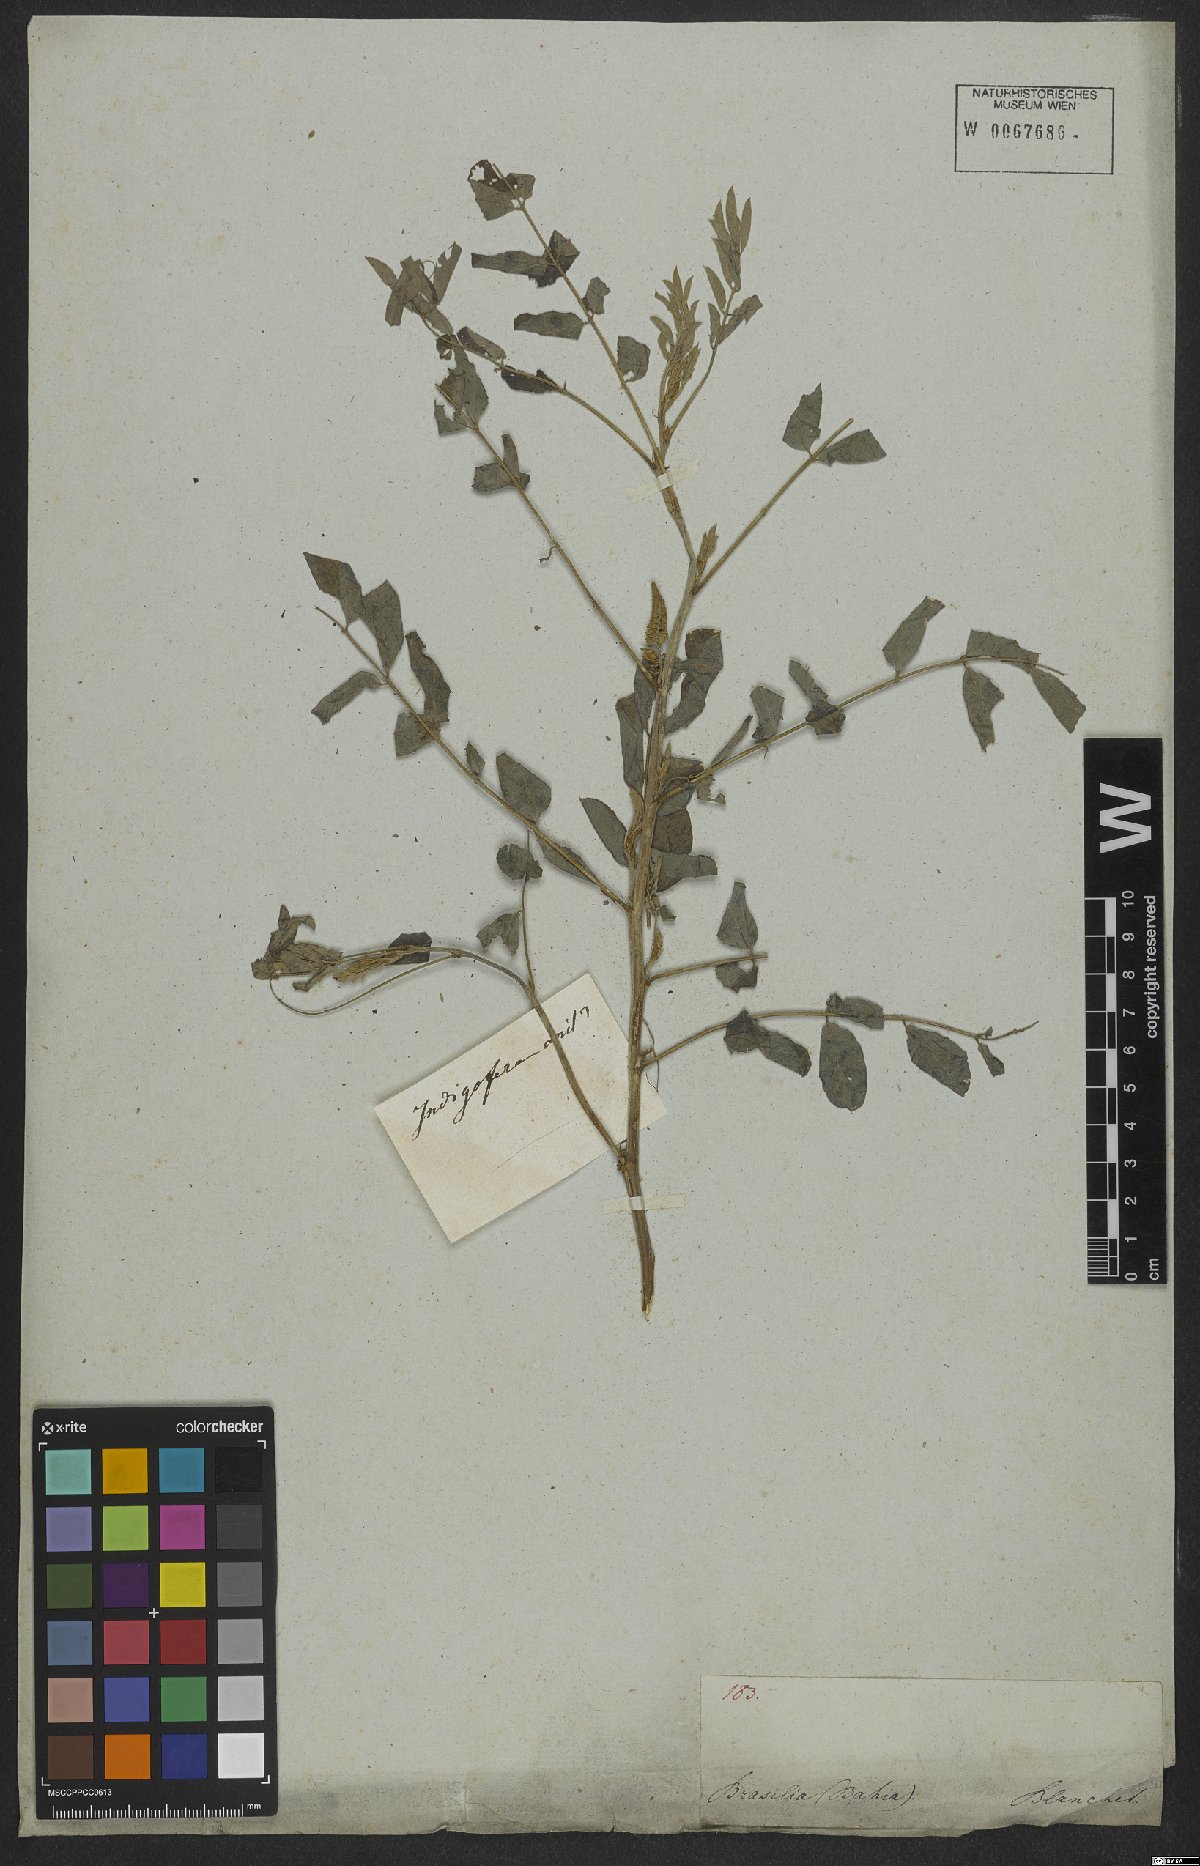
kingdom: Plantae
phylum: Tracheophyta
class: Magnoliopsida
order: Fabales
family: Fabaceae
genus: Indigofera
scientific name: Indigofera suffruticosa
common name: Anil de pasto
